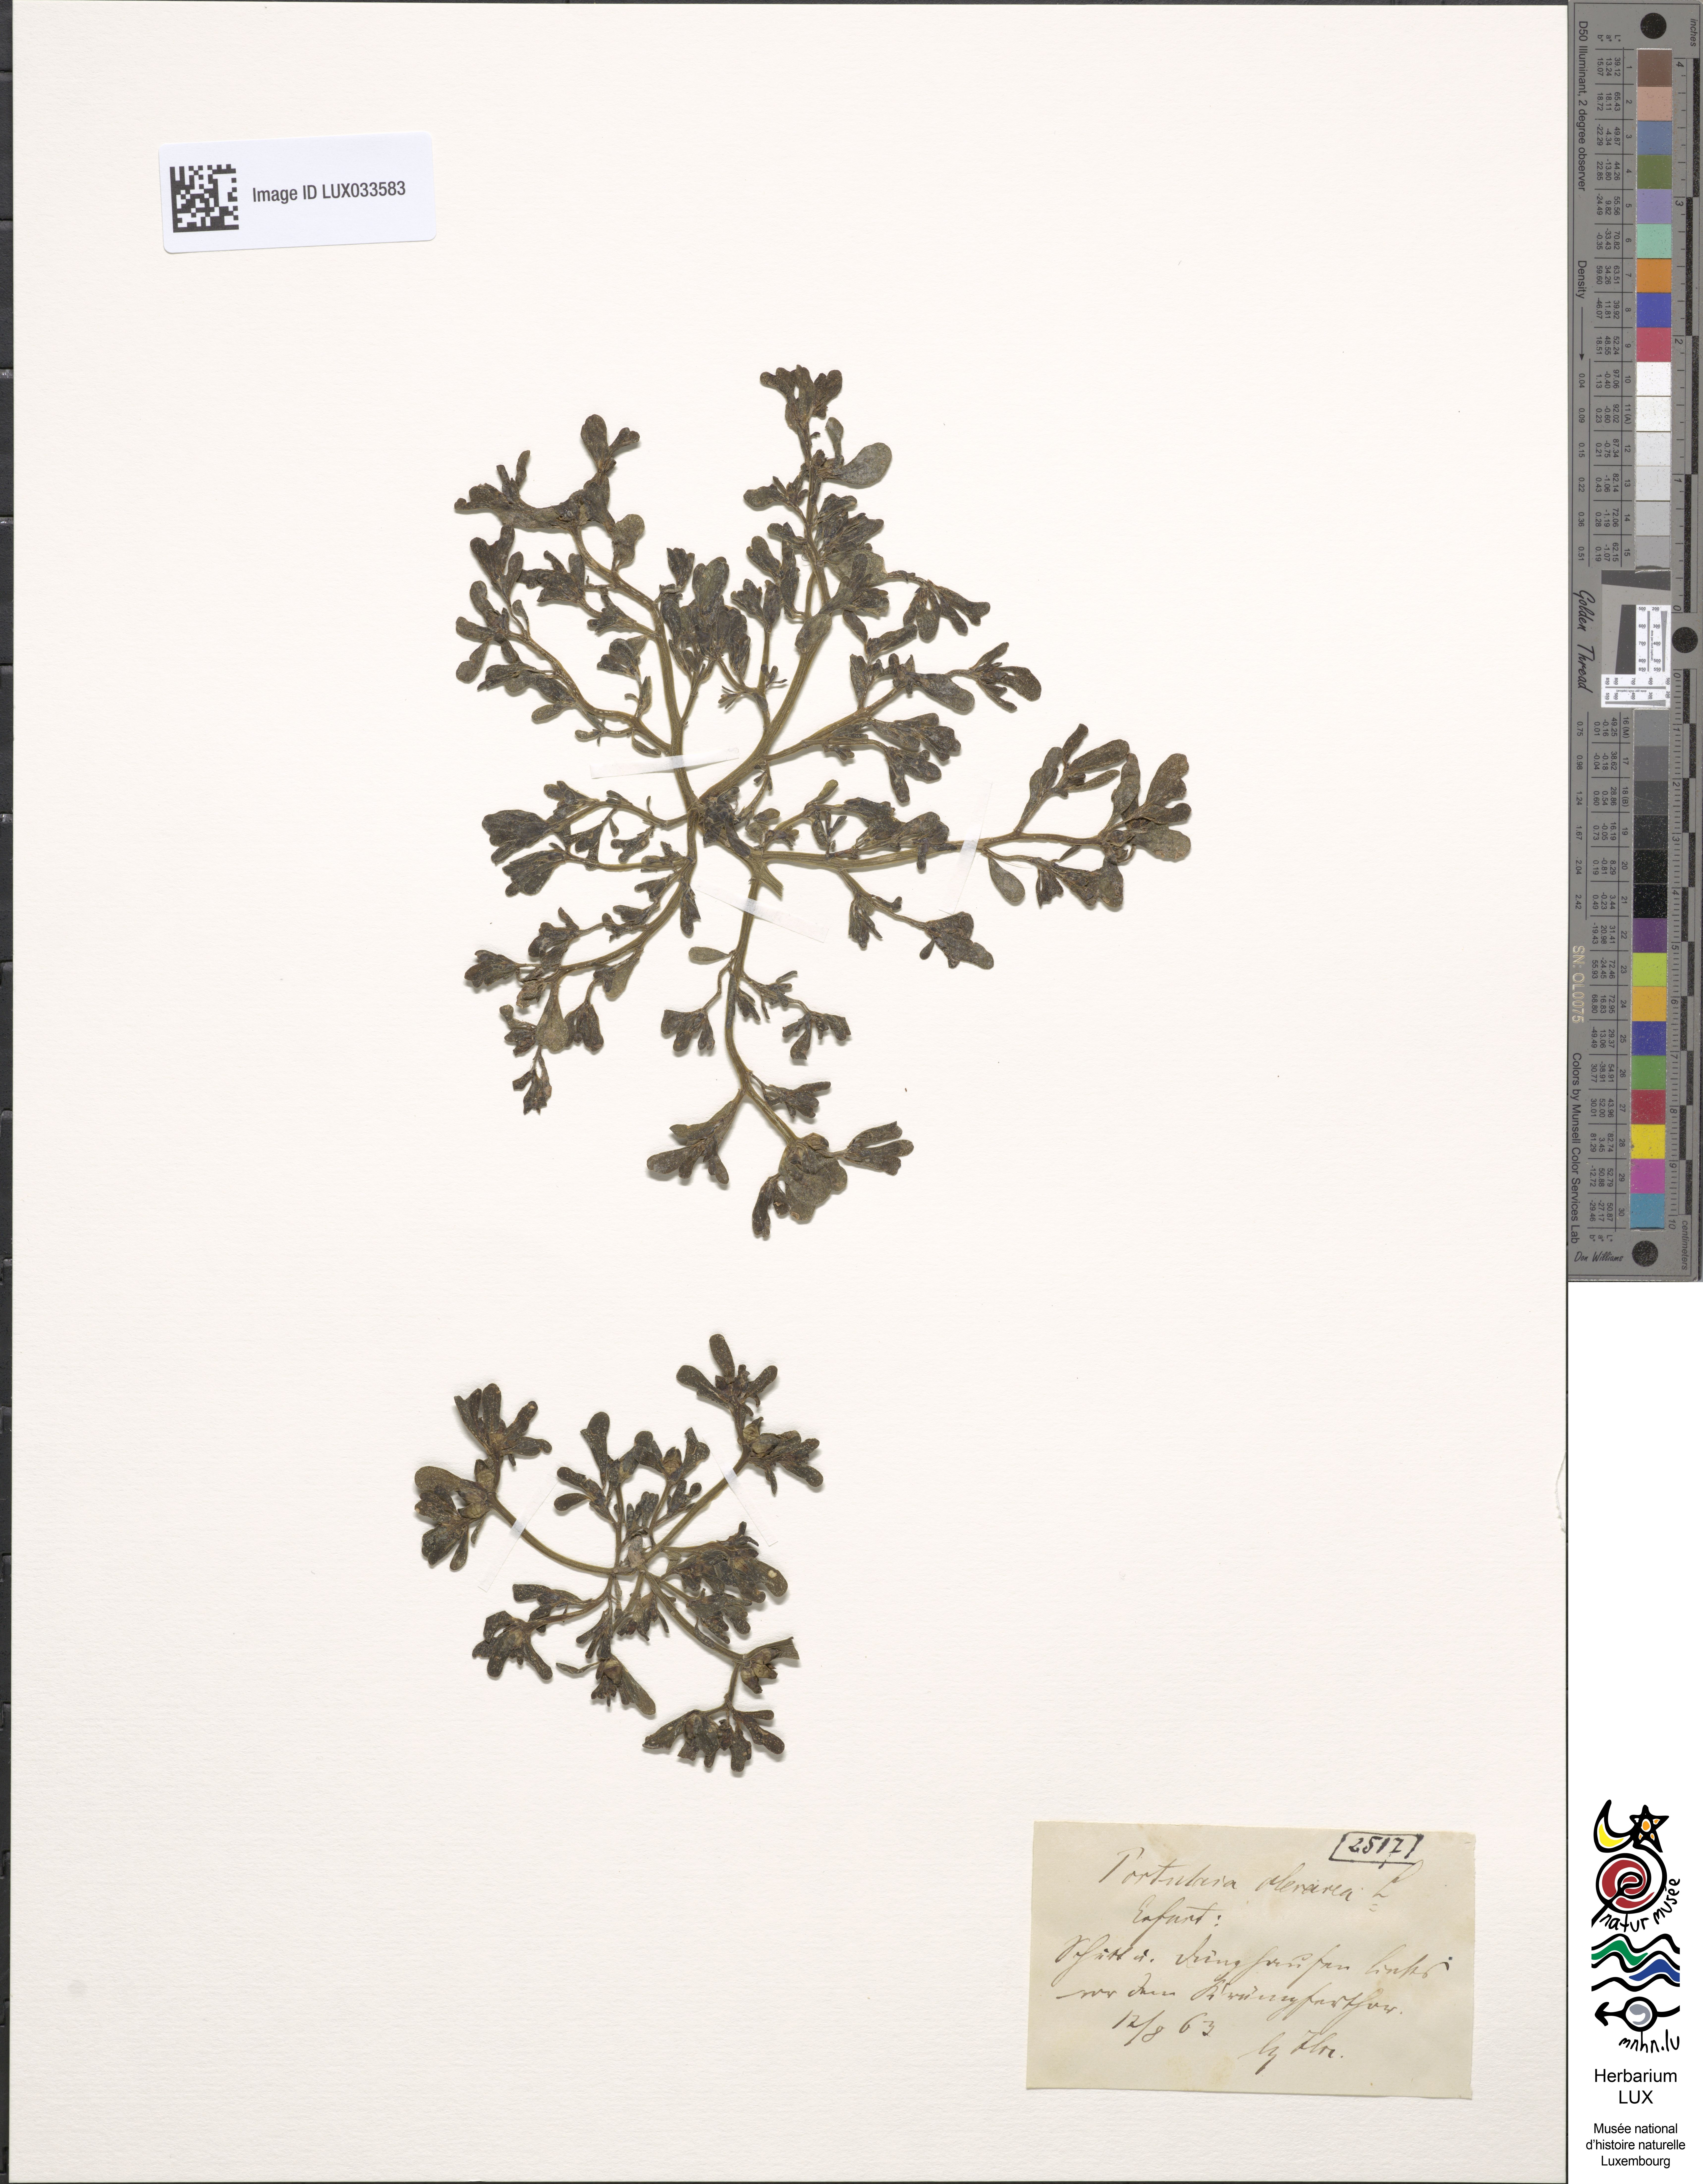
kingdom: Plantae
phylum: Tracheophyta
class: Magnoliopsida
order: Caryophyllales
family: Portulacaceae
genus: Portulaca
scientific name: Portulaca oleracea
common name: Common purslane
